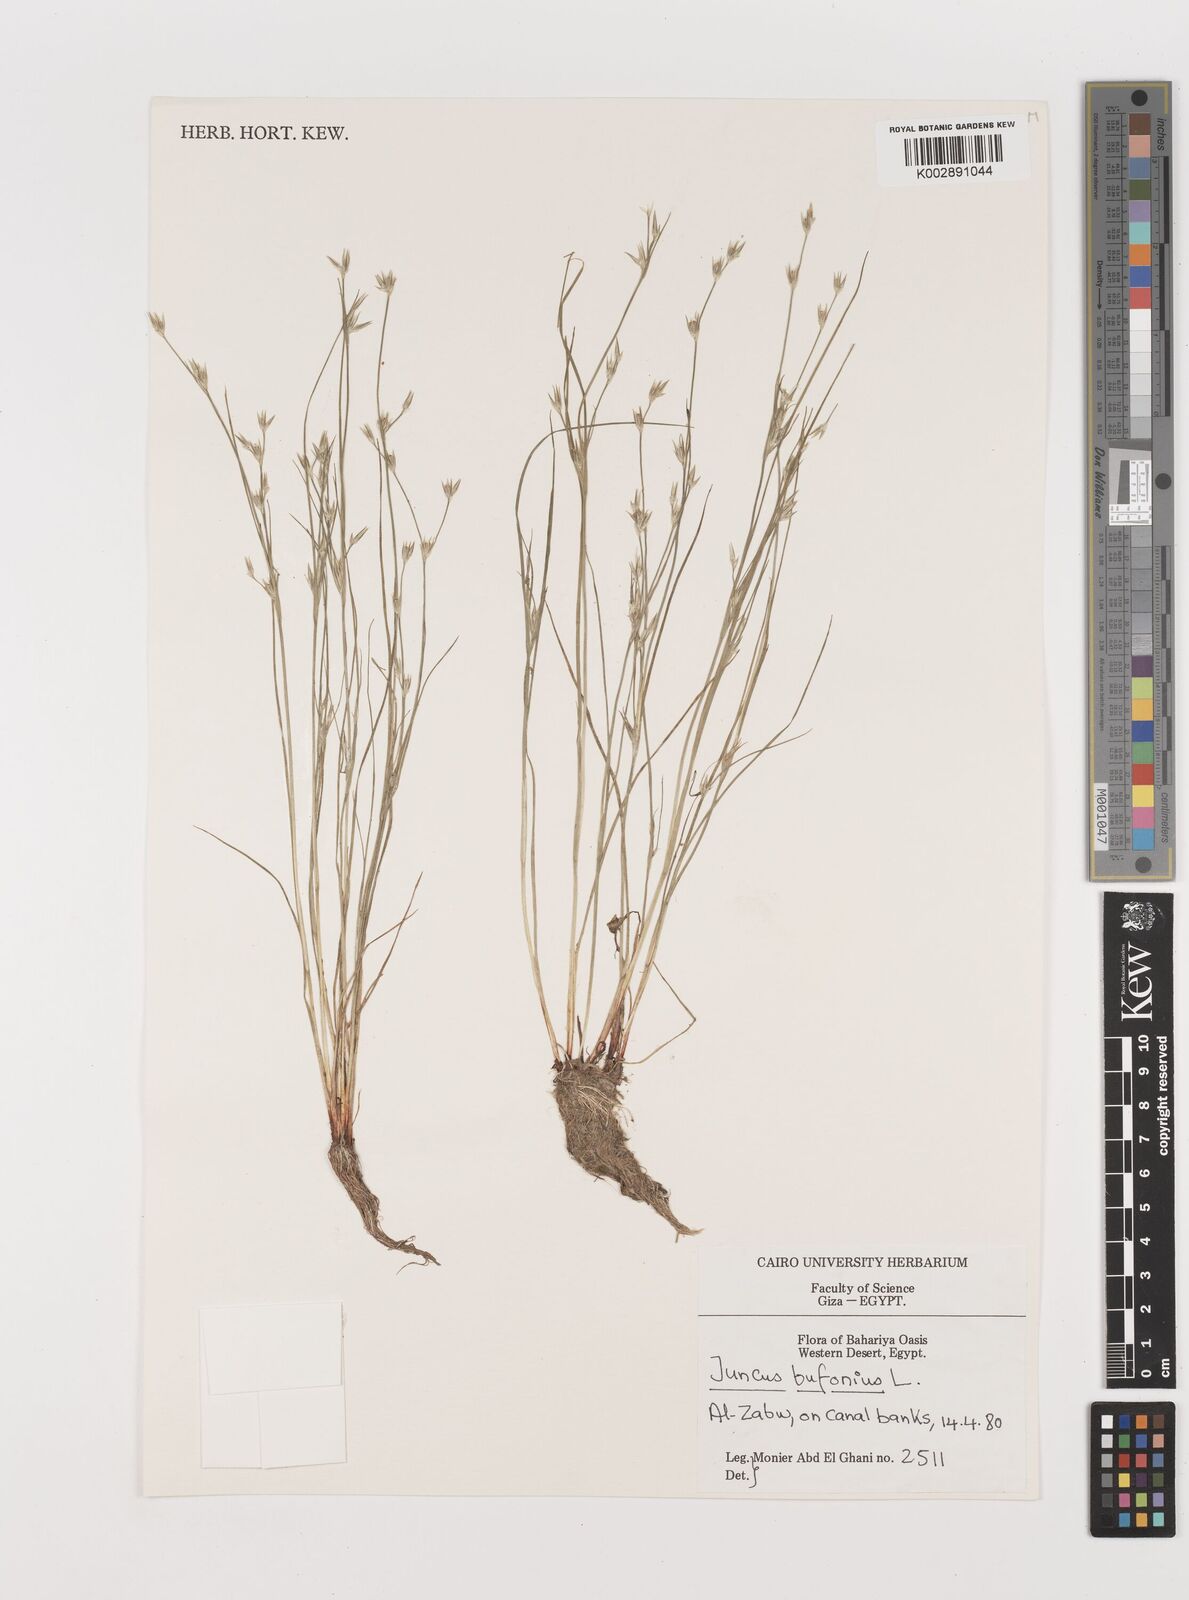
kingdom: Plantae
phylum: Tracheophyta
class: Liliopsida
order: Poales
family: Juncaceae
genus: Juncus
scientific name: Juncus bufonius
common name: Toad rush
